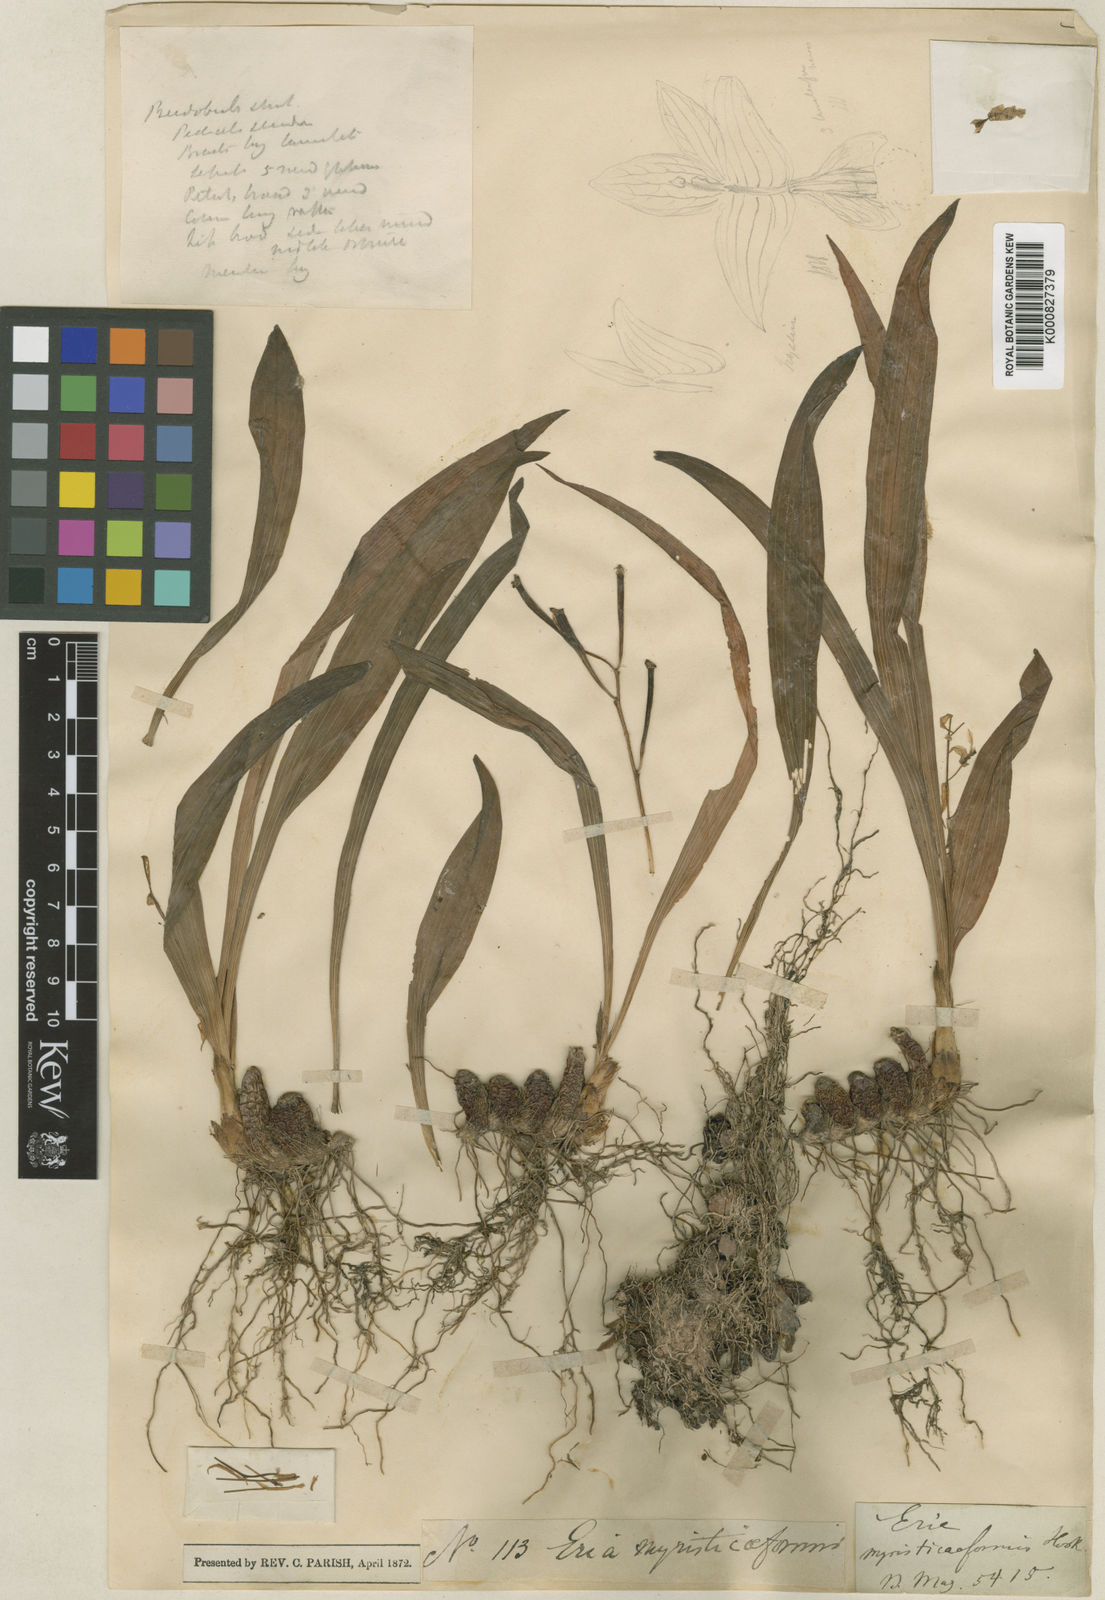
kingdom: Plantae
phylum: Tracheophyta
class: Liliopsida
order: Asparagales
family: Orchidaceae
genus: Pinalia
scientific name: Pinalia myristiciformis
